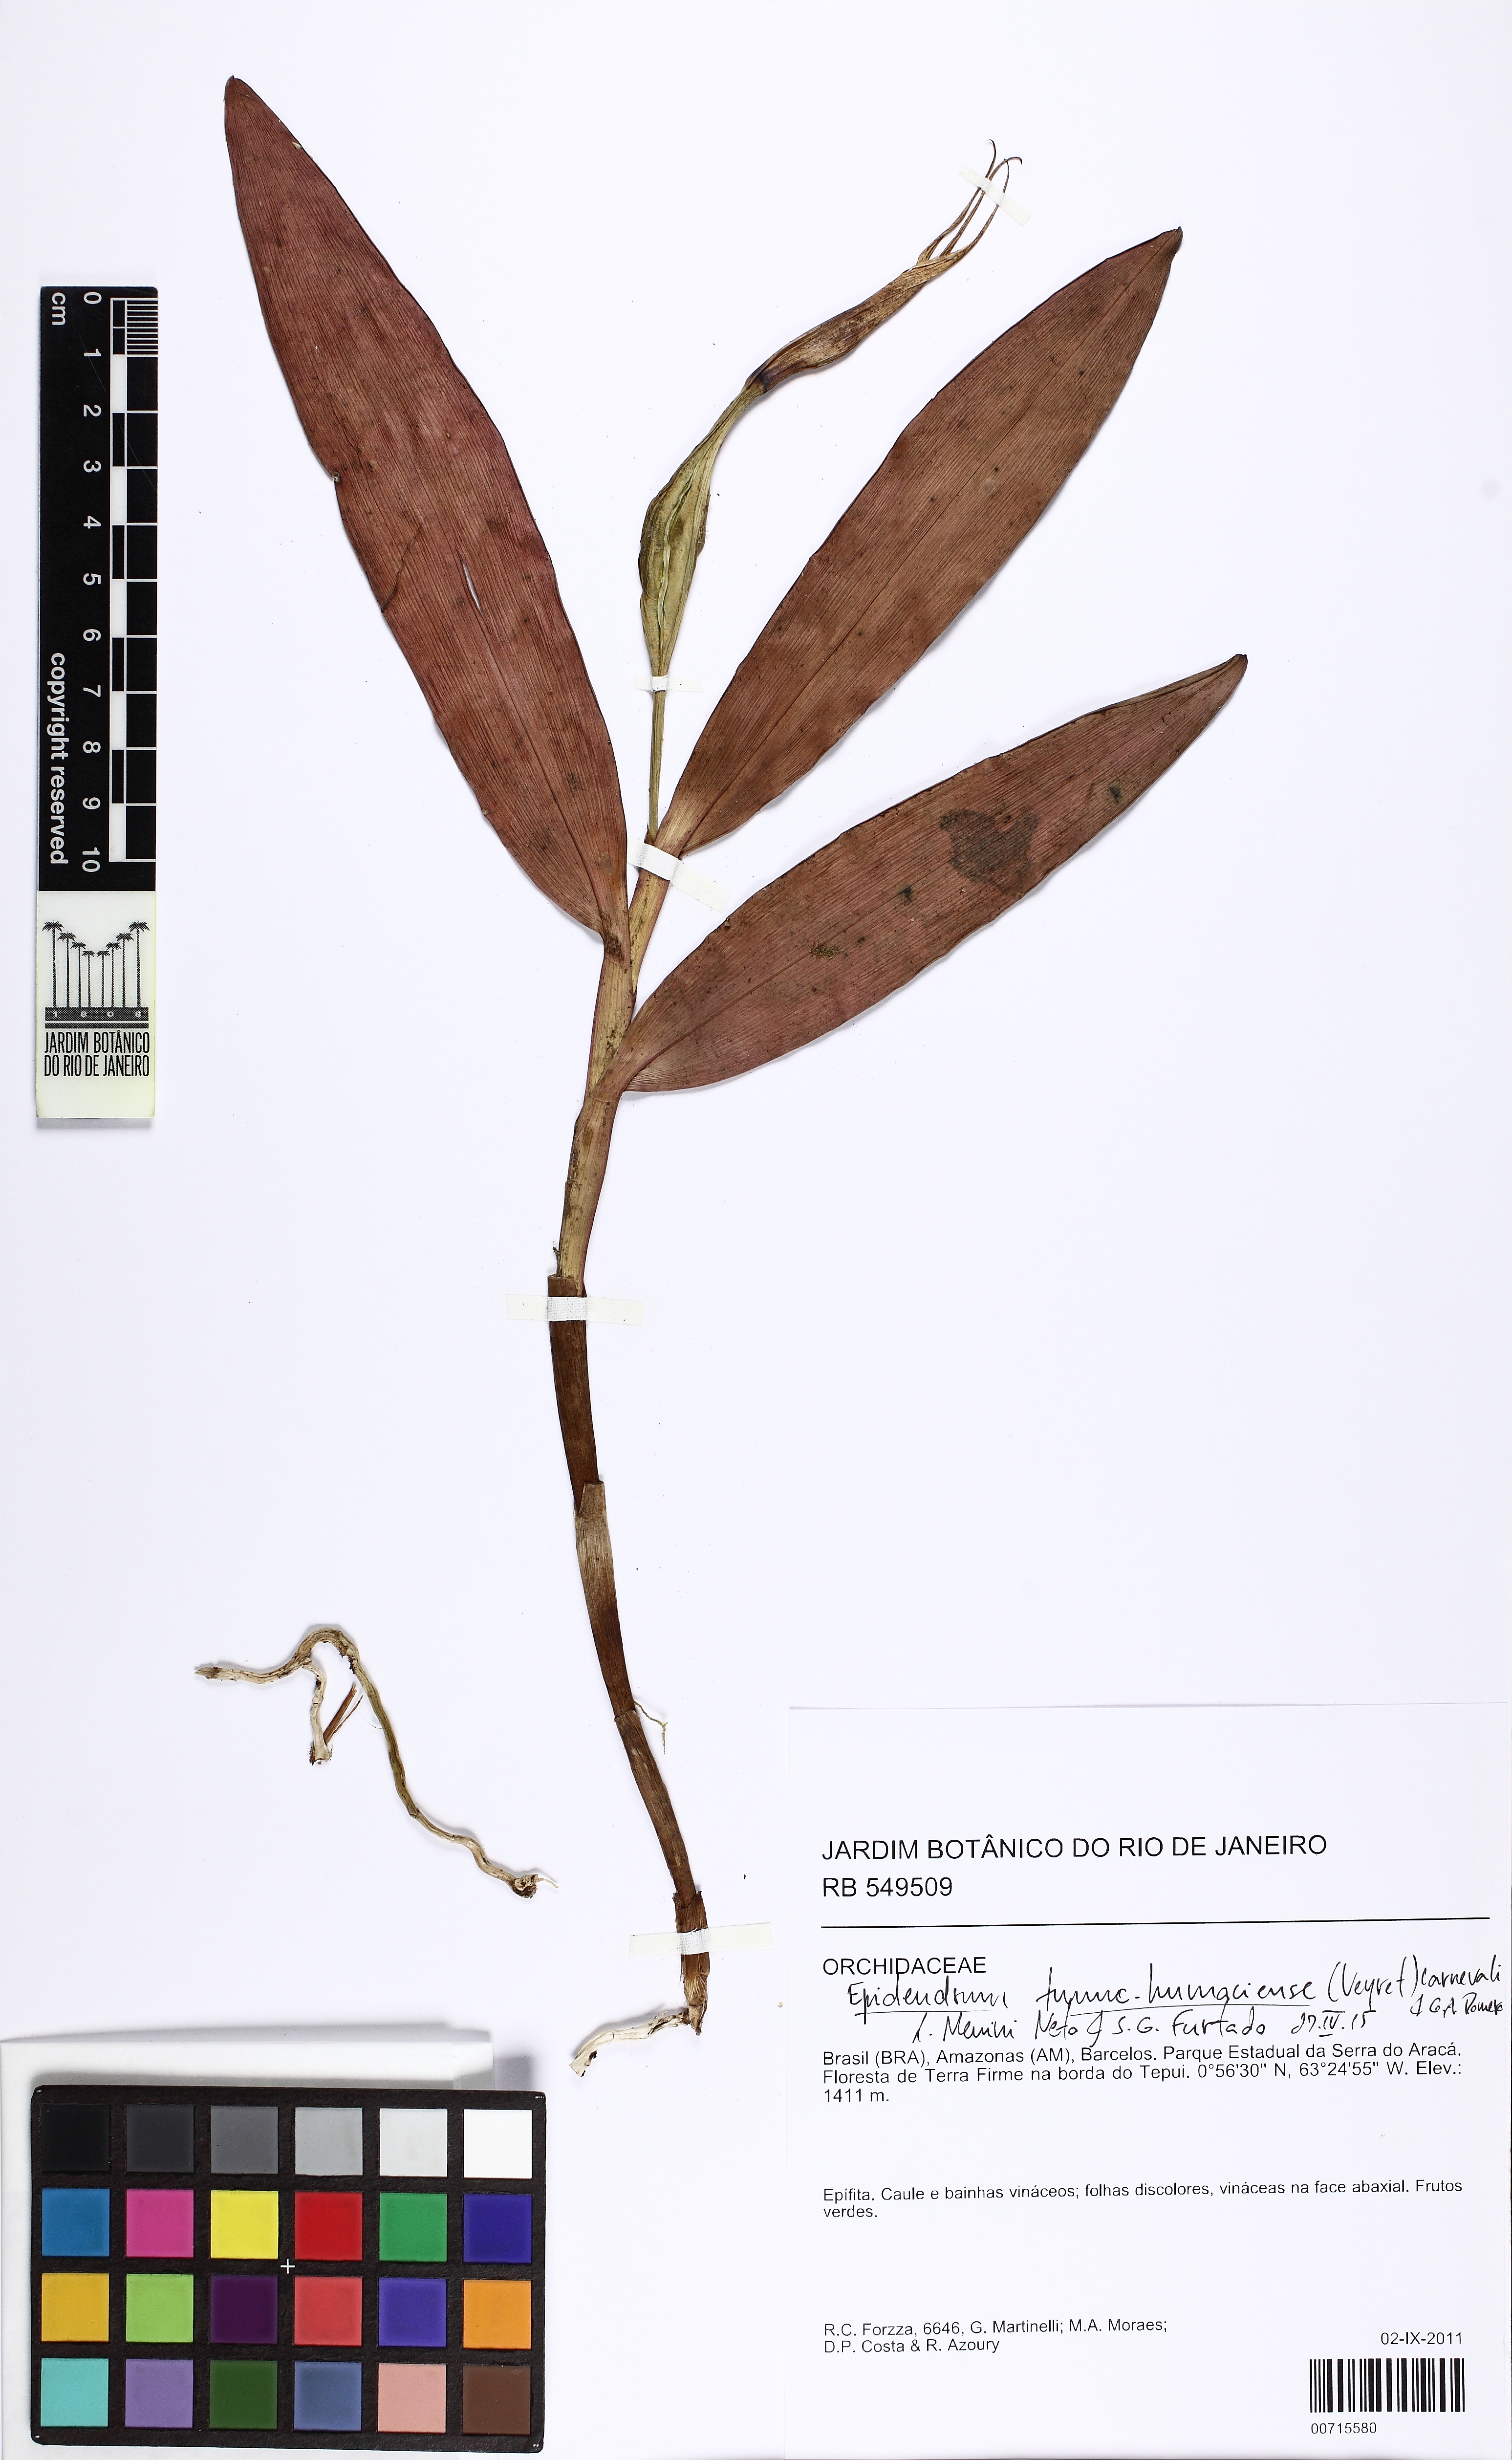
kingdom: Plantae
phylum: Tracheophyta
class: Liliopsida
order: Asparagales
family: Orchidaceae
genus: Epidendrum
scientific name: Epidendrum tumuc-humaciense
